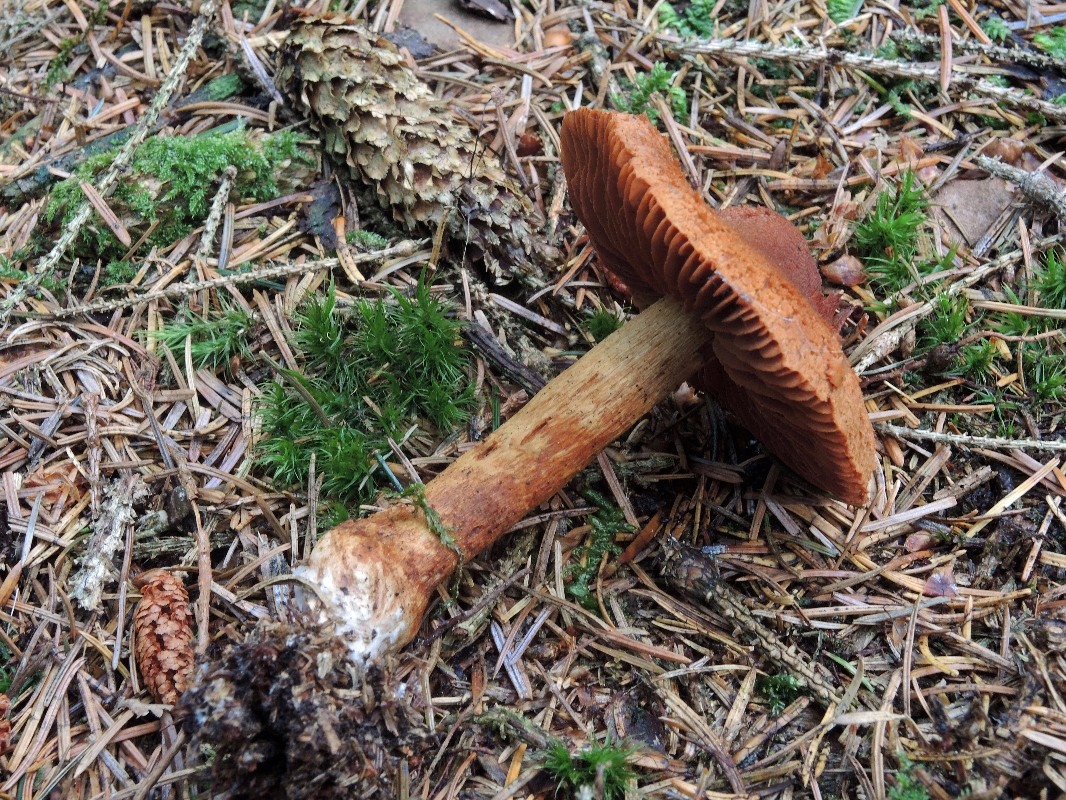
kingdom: Fungi
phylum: Basidiomycota
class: Agaricomycetes
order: Agaricales
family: Cortinariaceae
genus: Cortinarius
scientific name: Cortinarius rubellus
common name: puklet gift-slørhat
